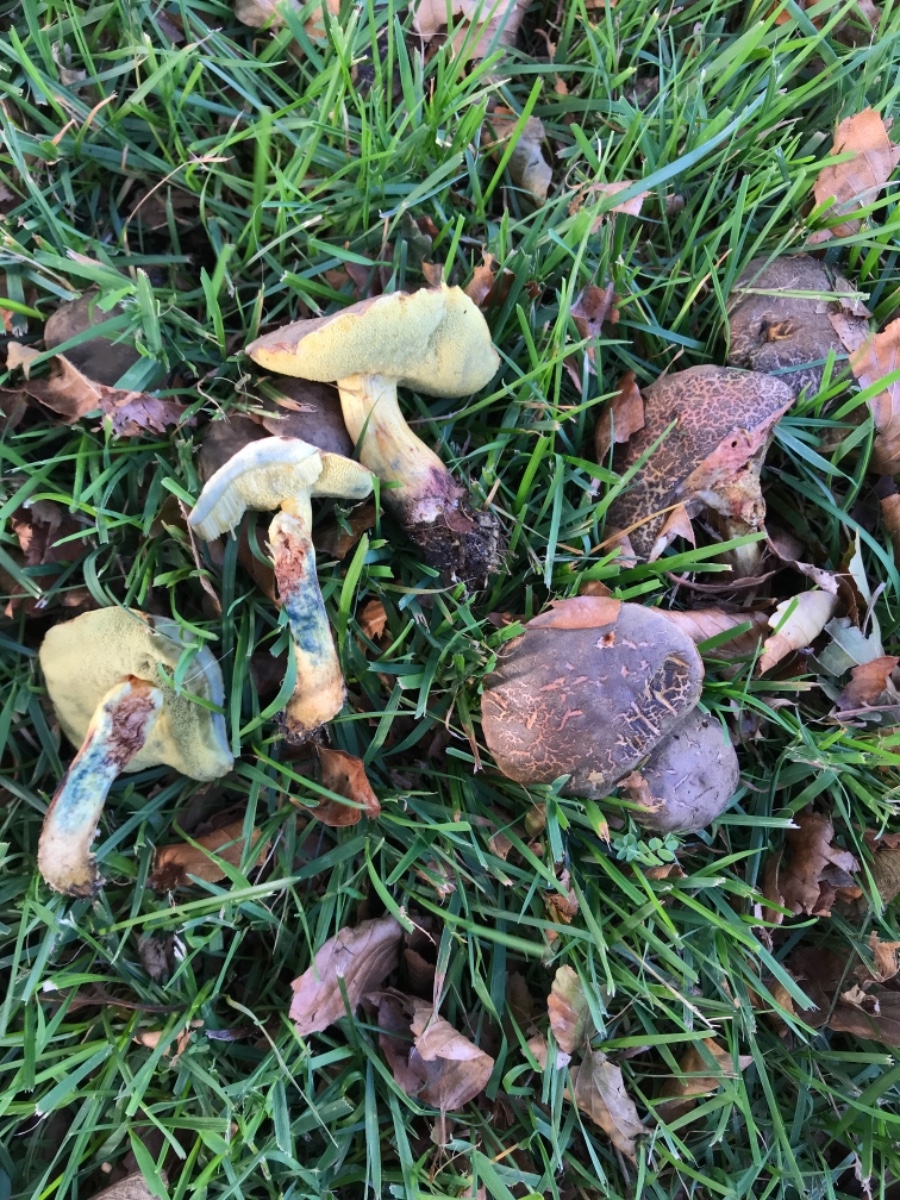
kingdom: Fungi
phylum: Basidiomycota
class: Agaricomycetes
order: Boletales
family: Boletaceae
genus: Xerocomellus
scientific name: Xerocomellus cisalpinus
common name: finsprukken rørhat
